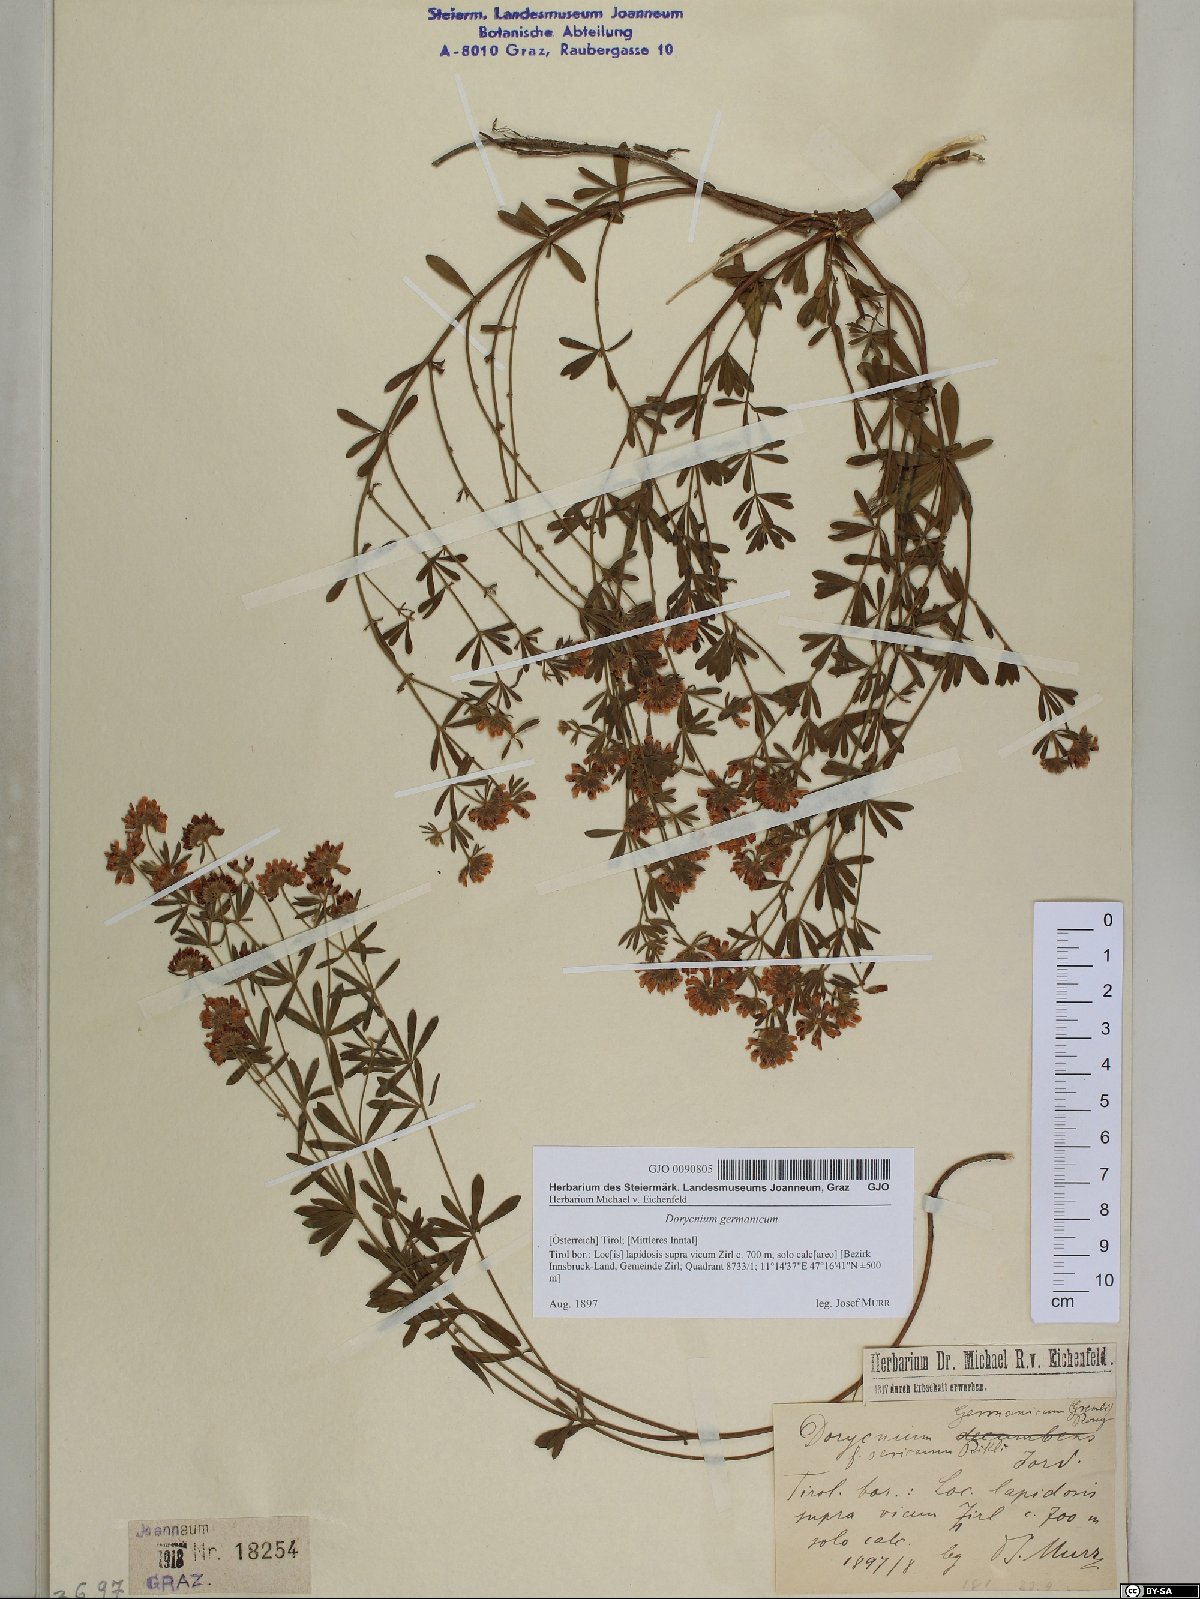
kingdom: Plantae
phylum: Tracheophyta
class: Magnoliopsida
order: Fabales
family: Fabaceae
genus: Lotus
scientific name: Lotus germanicus
